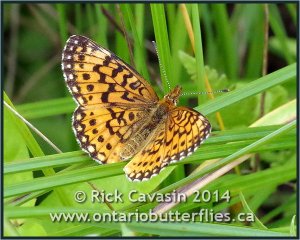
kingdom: Animalia
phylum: Arthropoda
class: Insecta
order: Lepidoptera
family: Nymphalidae
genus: Boloria
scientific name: Boloria selene
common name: Silver-bordered Fritillary
